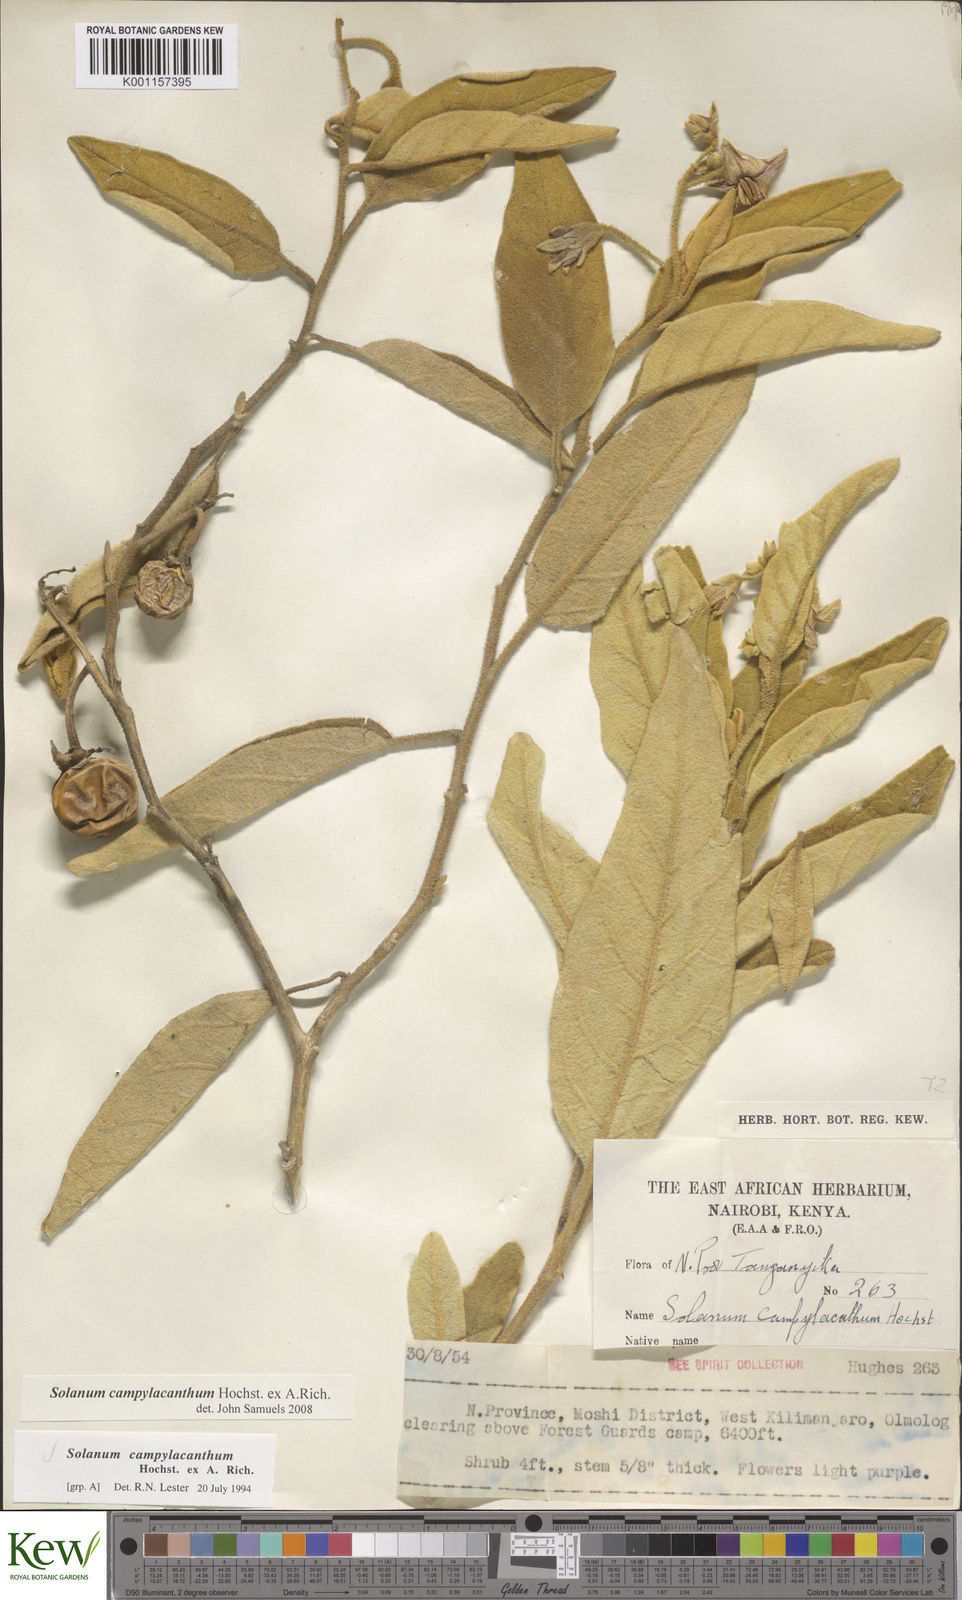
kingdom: Plantae
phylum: Tracheophyta
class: Magnoliopsida
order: Solanales
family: Solanaceae
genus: Solanum
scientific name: Solanum campylacanthum
